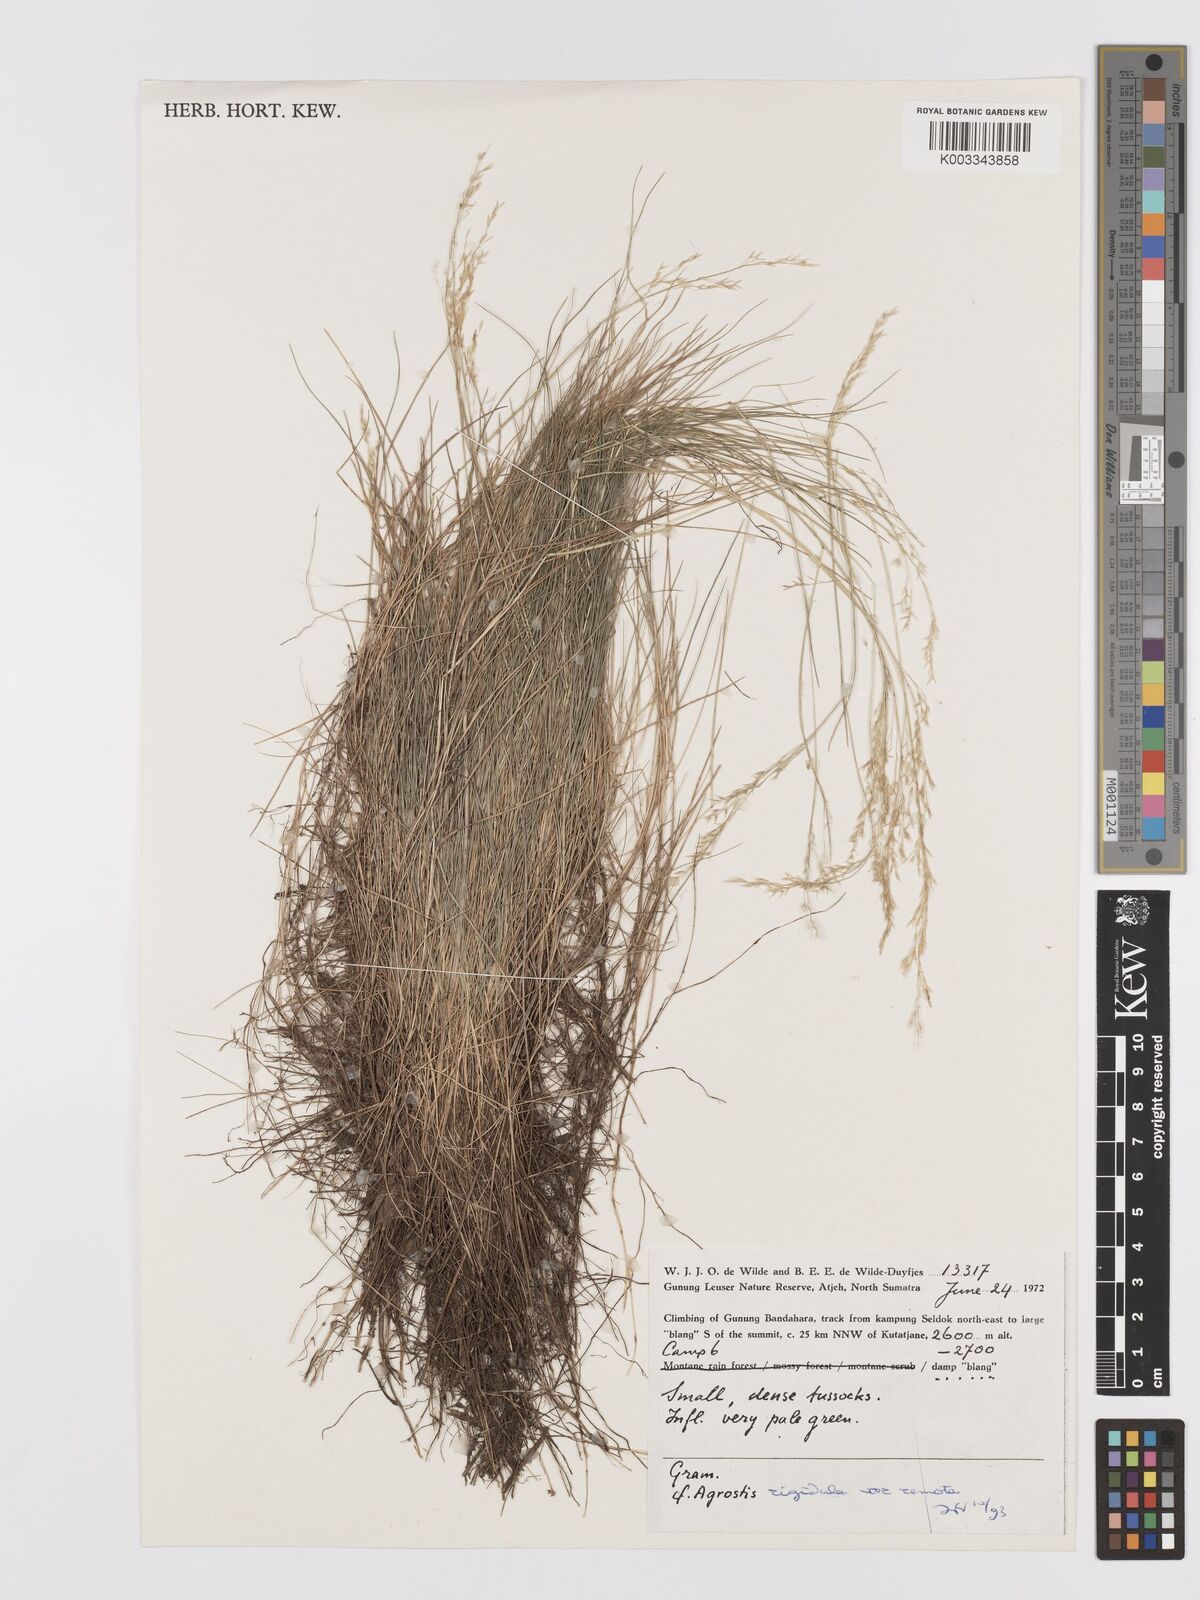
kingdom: Plantae
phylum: Tracheophyta
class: Liliopsida
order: Poales
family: Poaceae
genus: Agrostis
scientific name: Agrostis infirma
